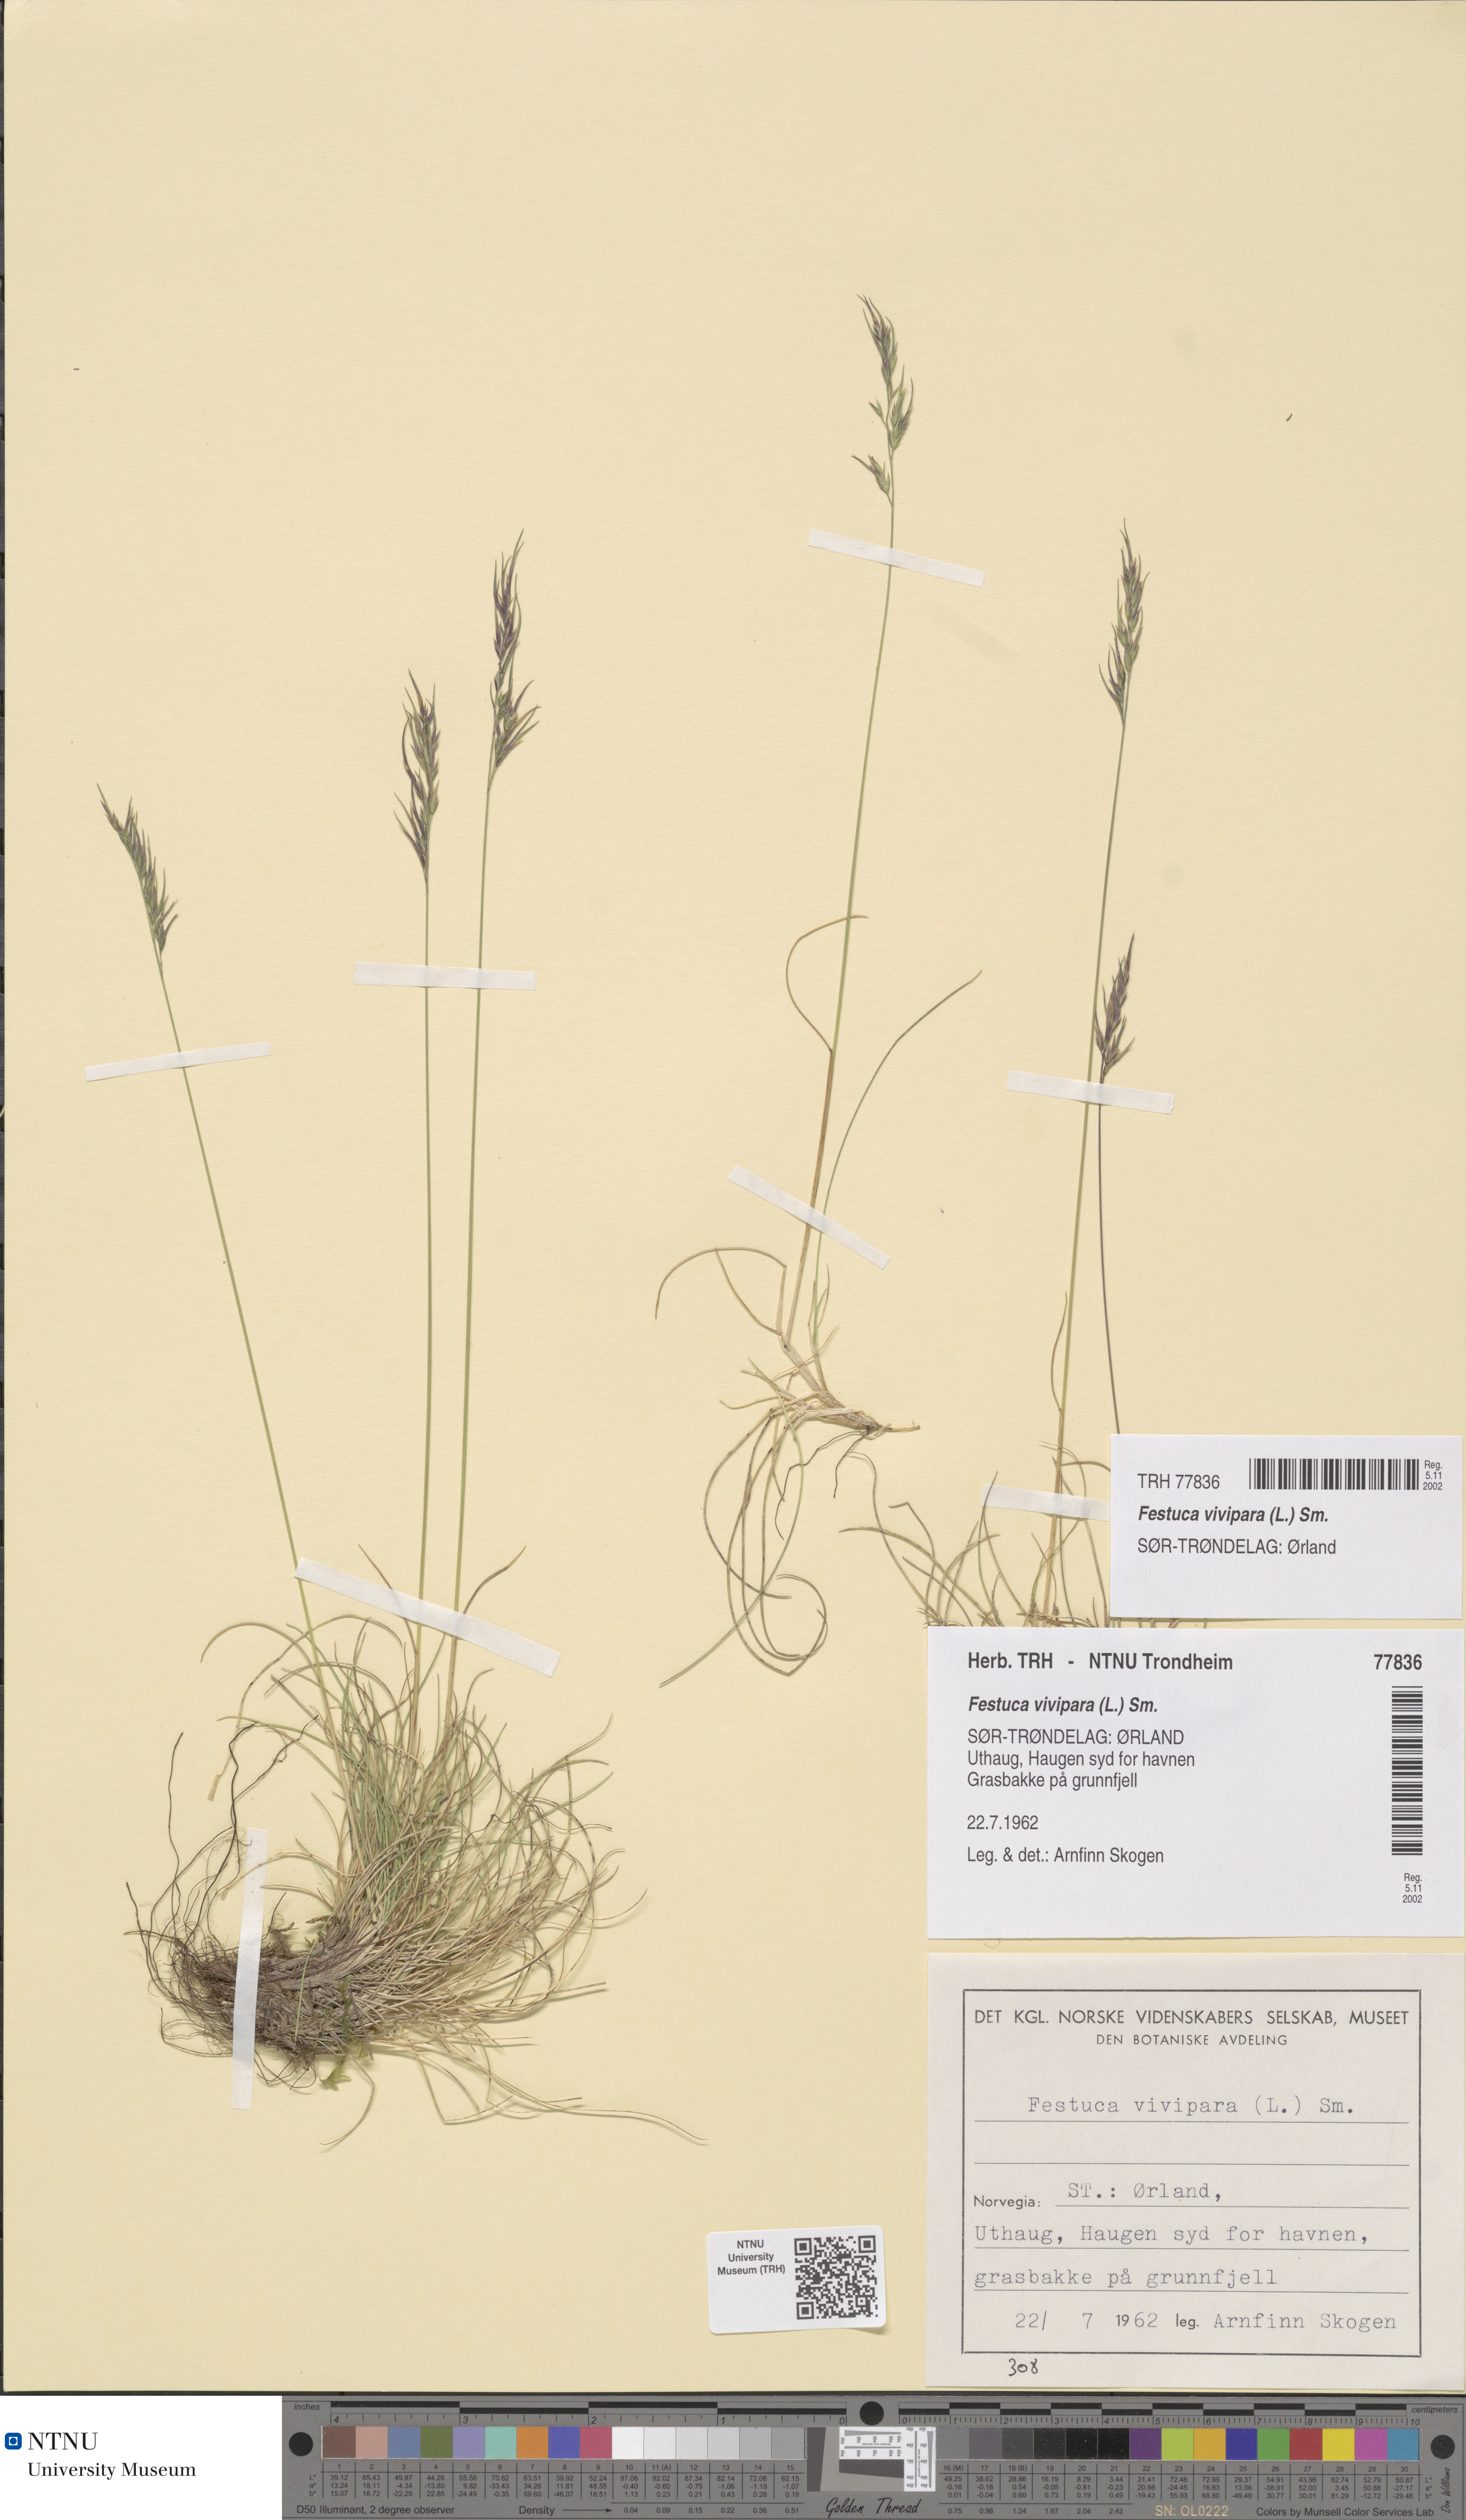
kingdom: Plantae
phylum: Tracheophyta
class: Liliopsida
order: Poales
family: Poaceae
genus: Festuca
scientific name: Festuca vivipara
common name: Viviparous sheep's-fescue
